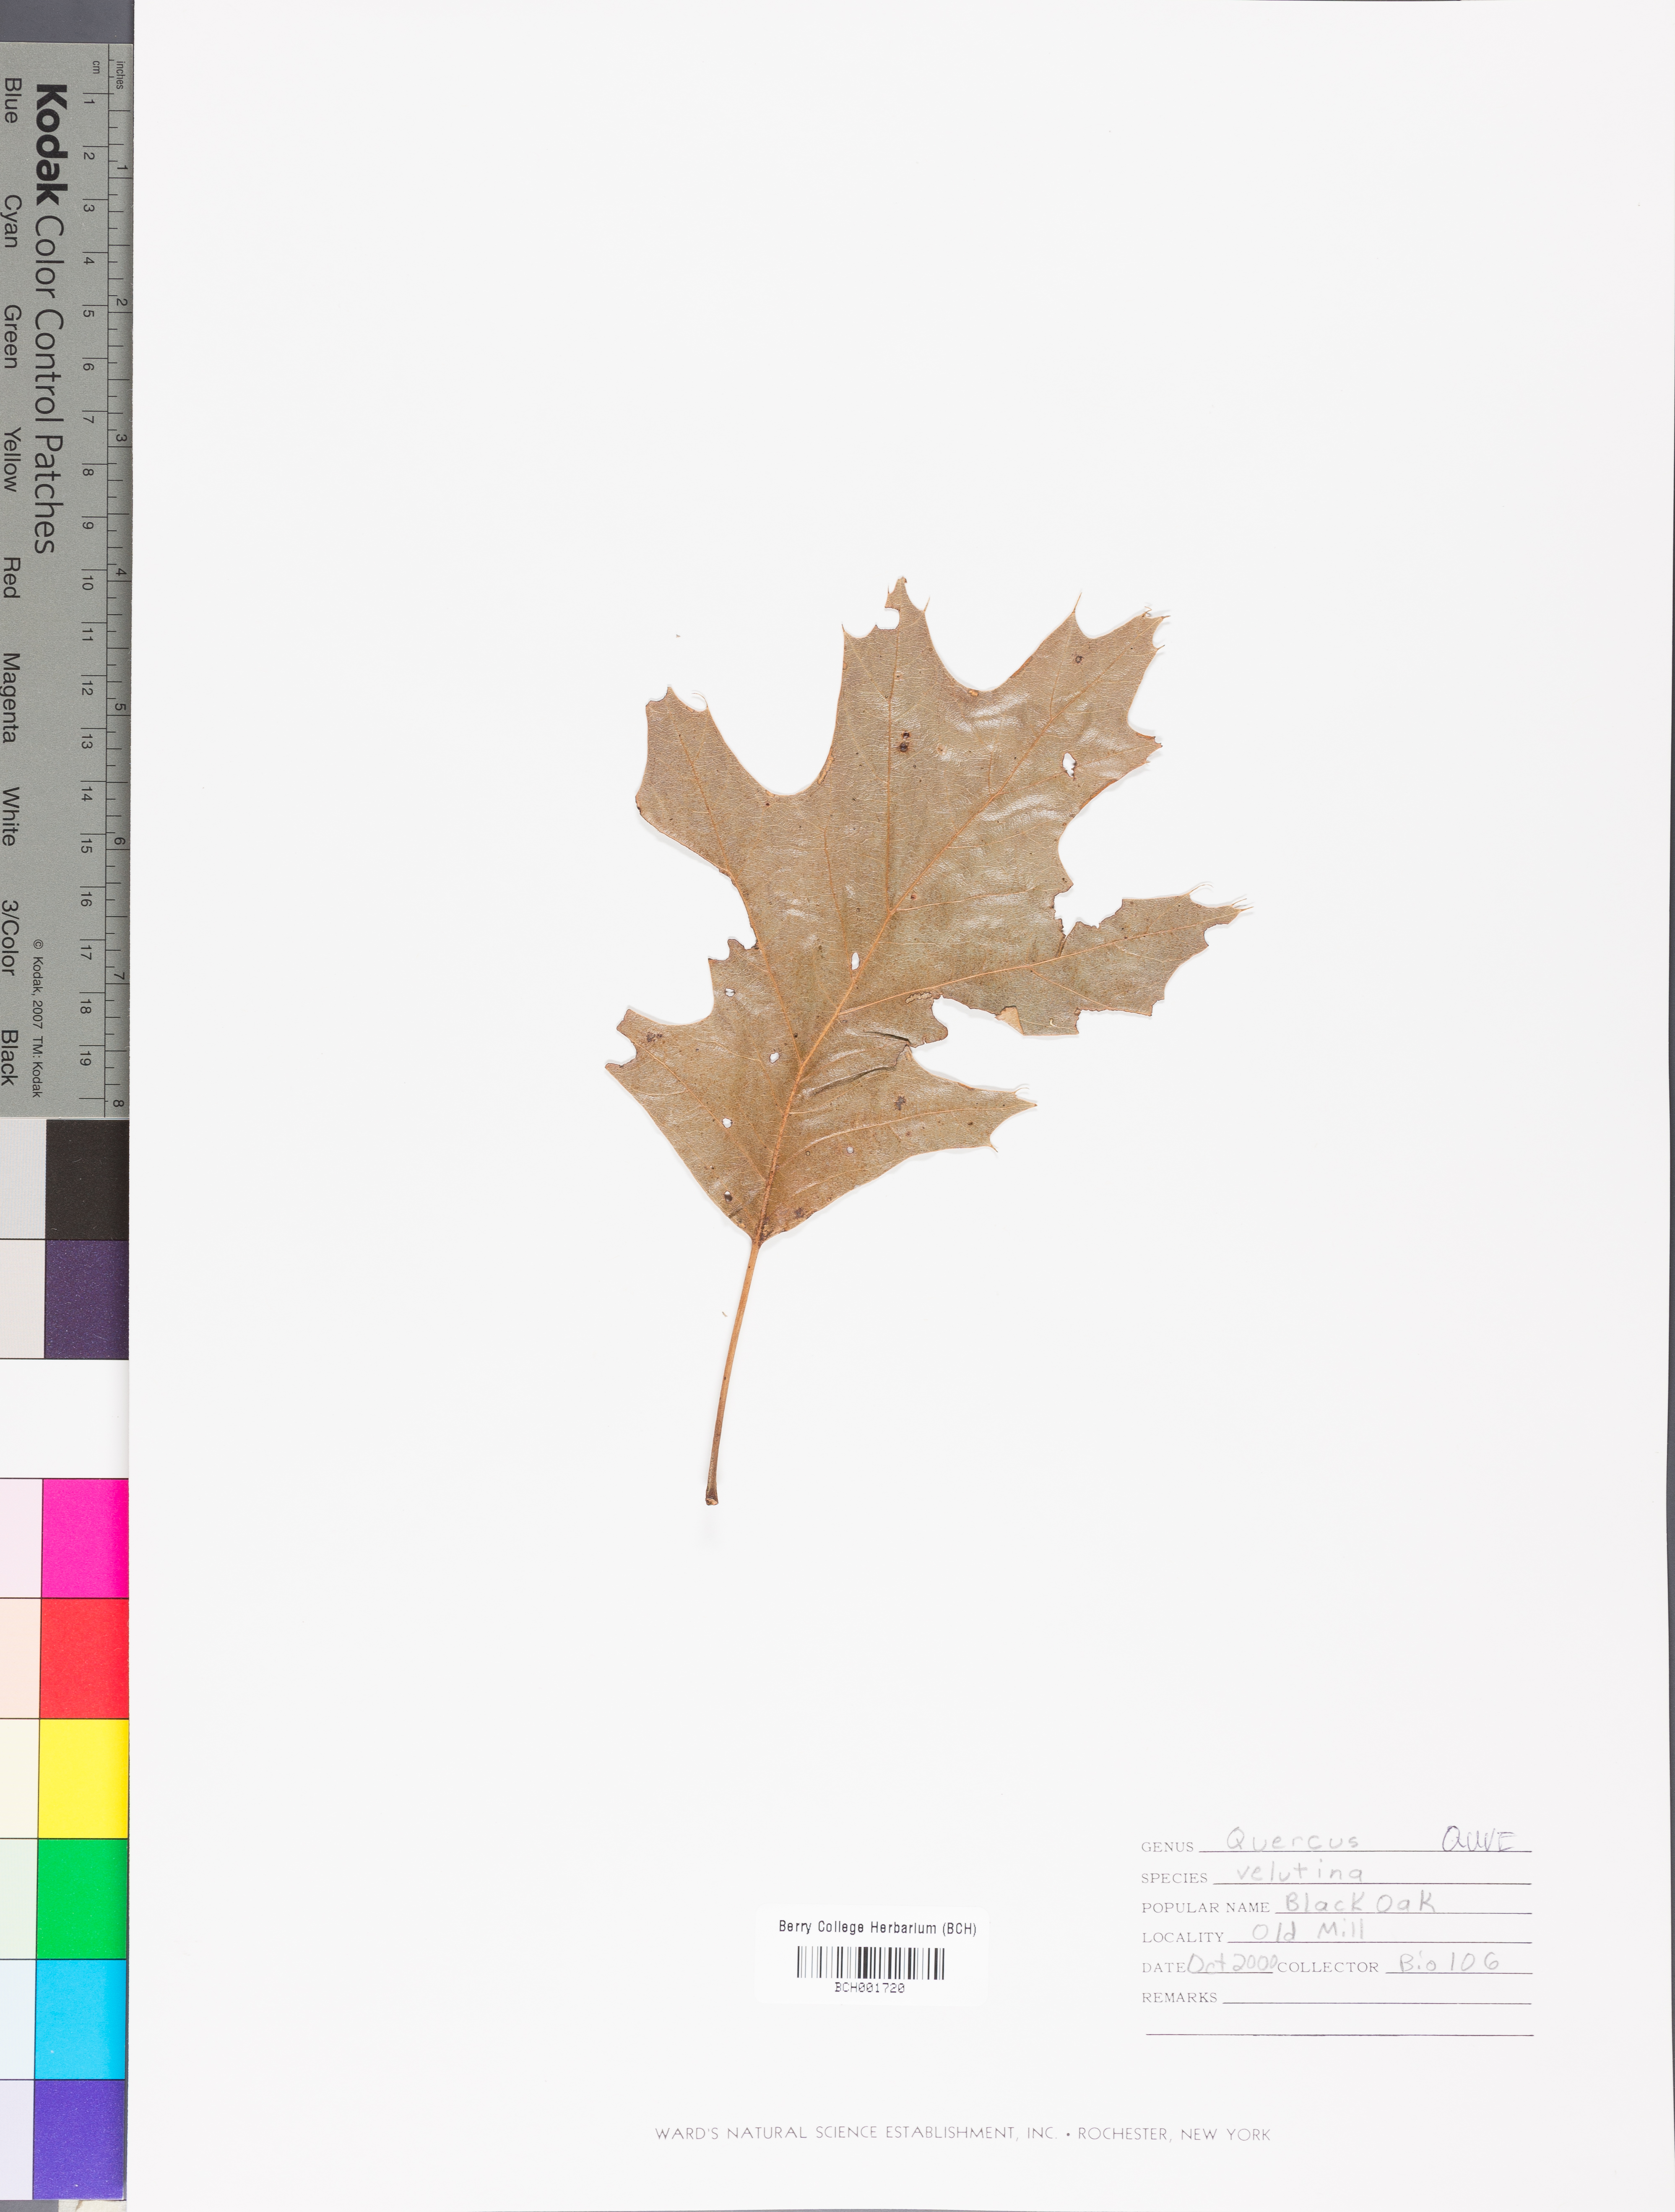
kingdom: Plantae
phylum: Tracheophyta
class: Magnoliopsida
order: Fagales
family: Fagaceae
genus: Quercus
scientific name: Quercus velutina
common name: Black oak
